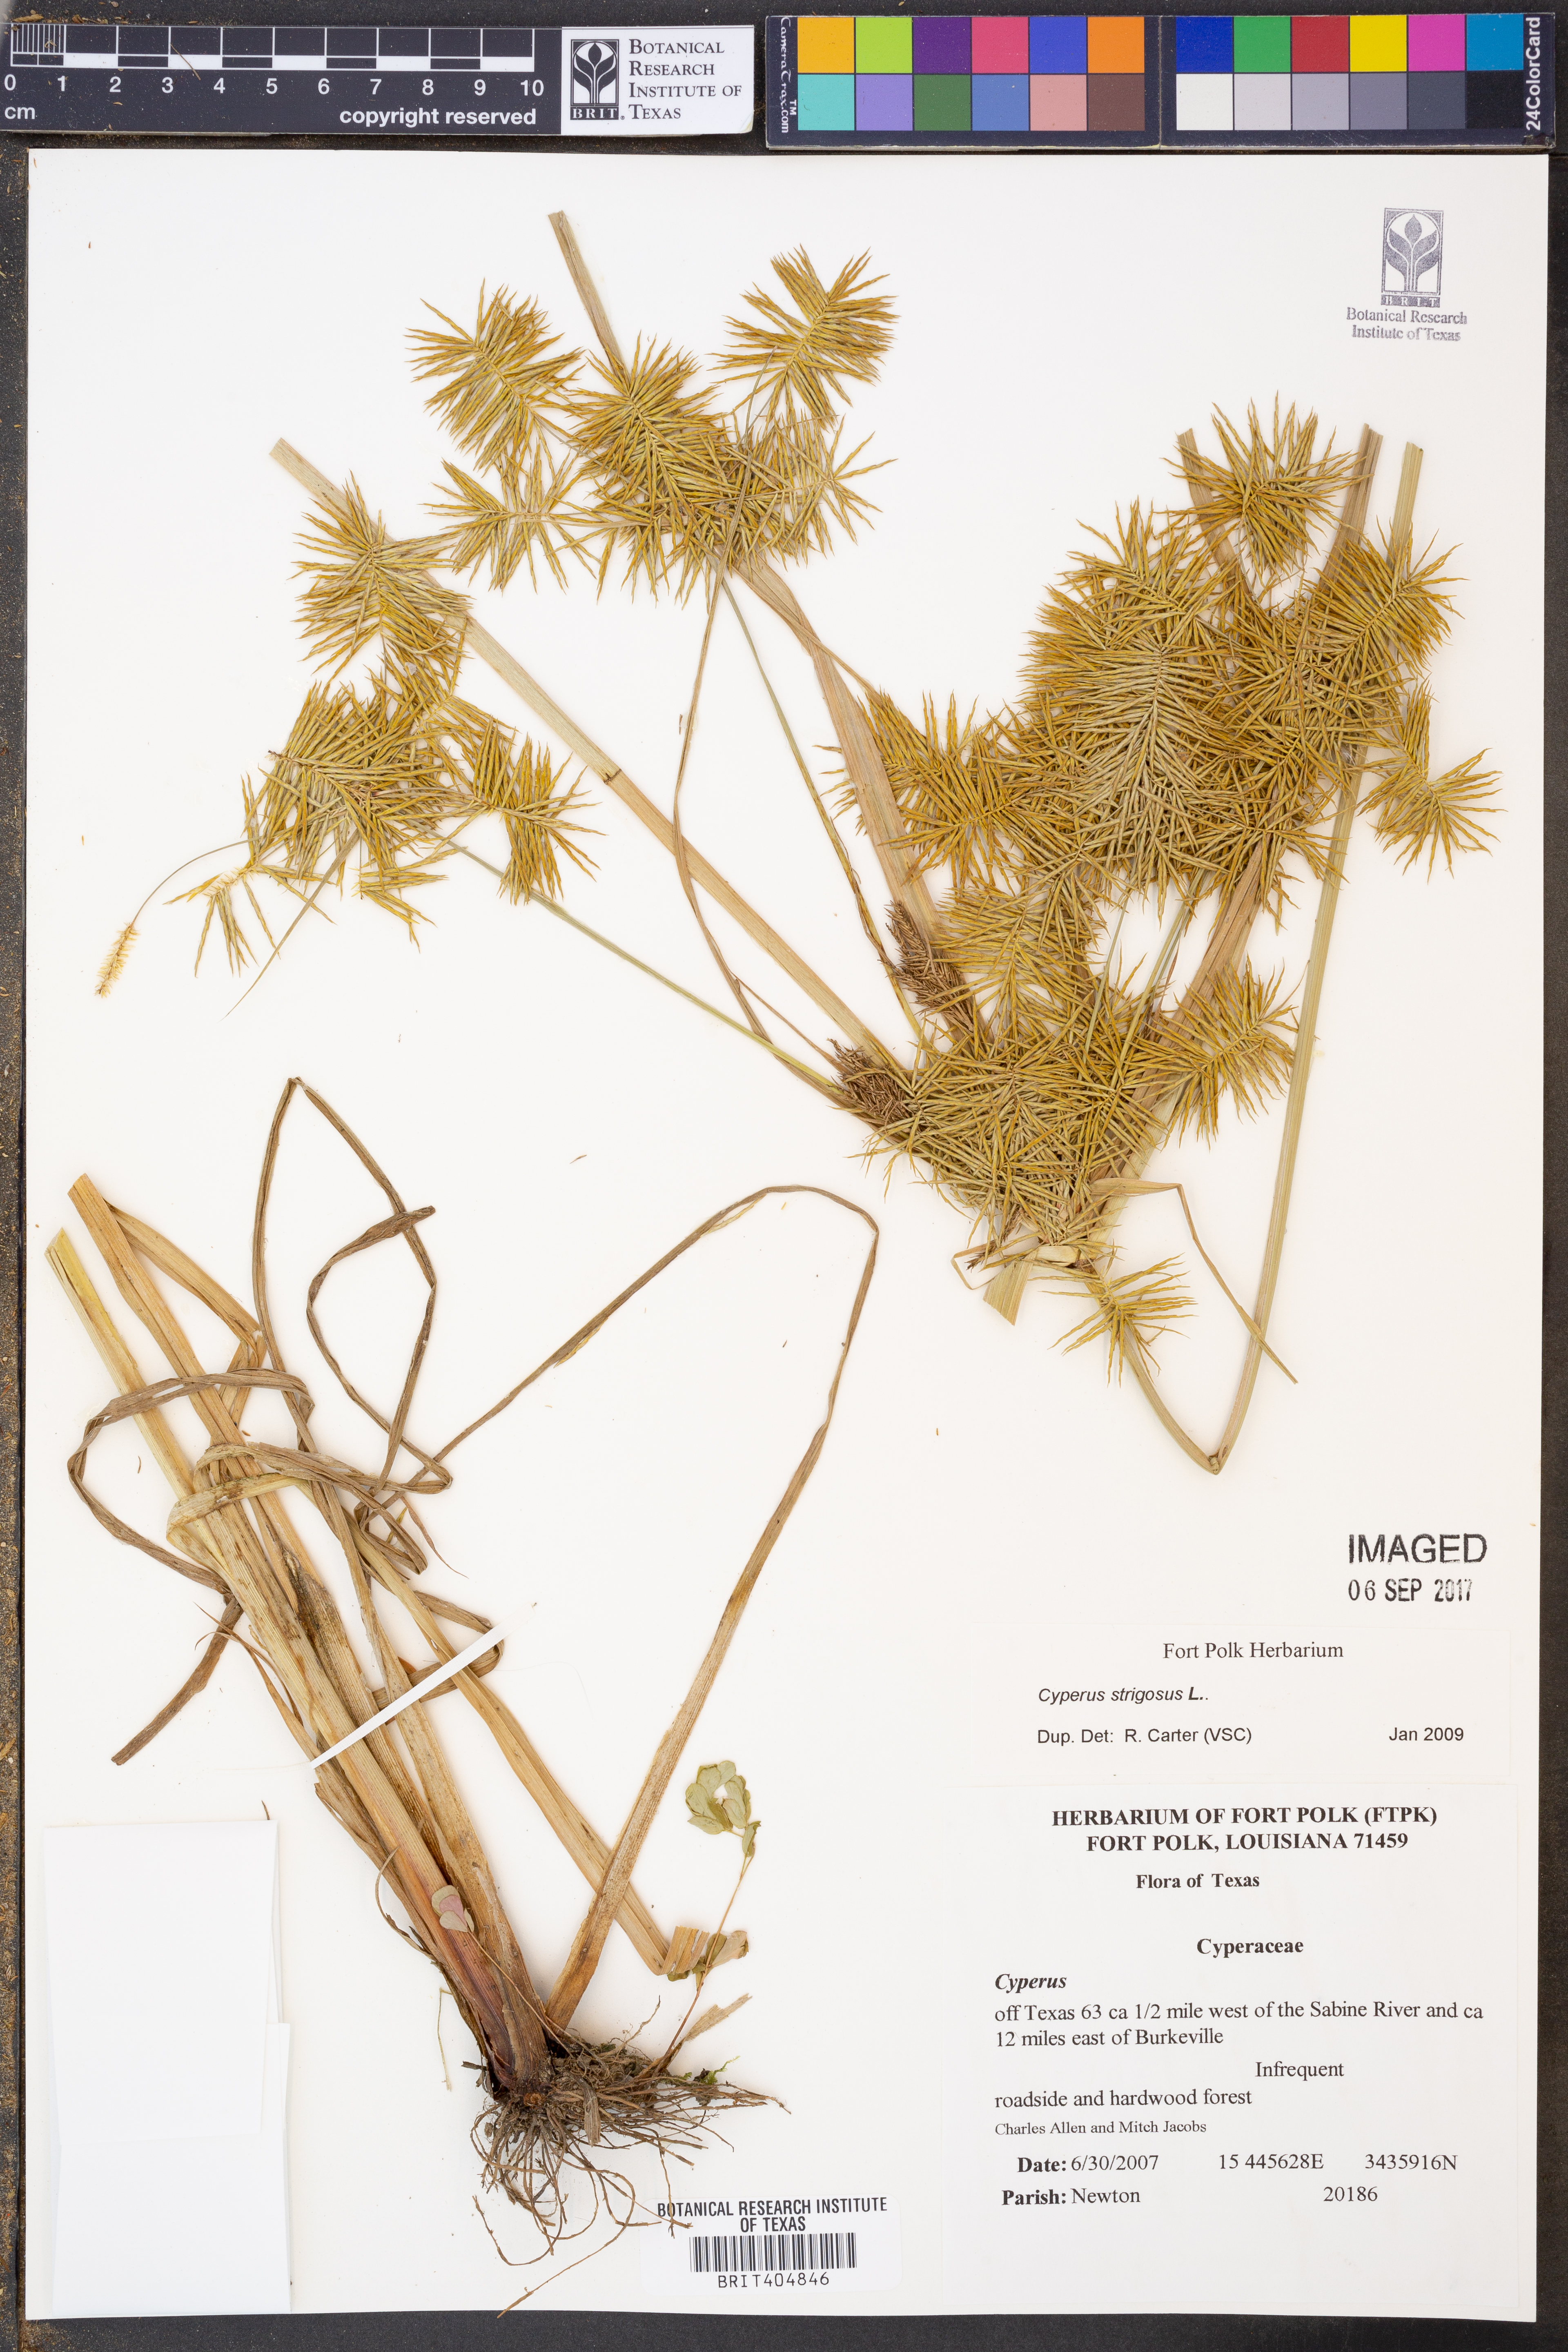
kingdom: Plantae
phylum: Tracheophyta
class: Liliopsida
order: Poales
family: Cyperaceae
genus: Cyperus
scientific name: Cyperus strigosus
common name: False nutsedge
